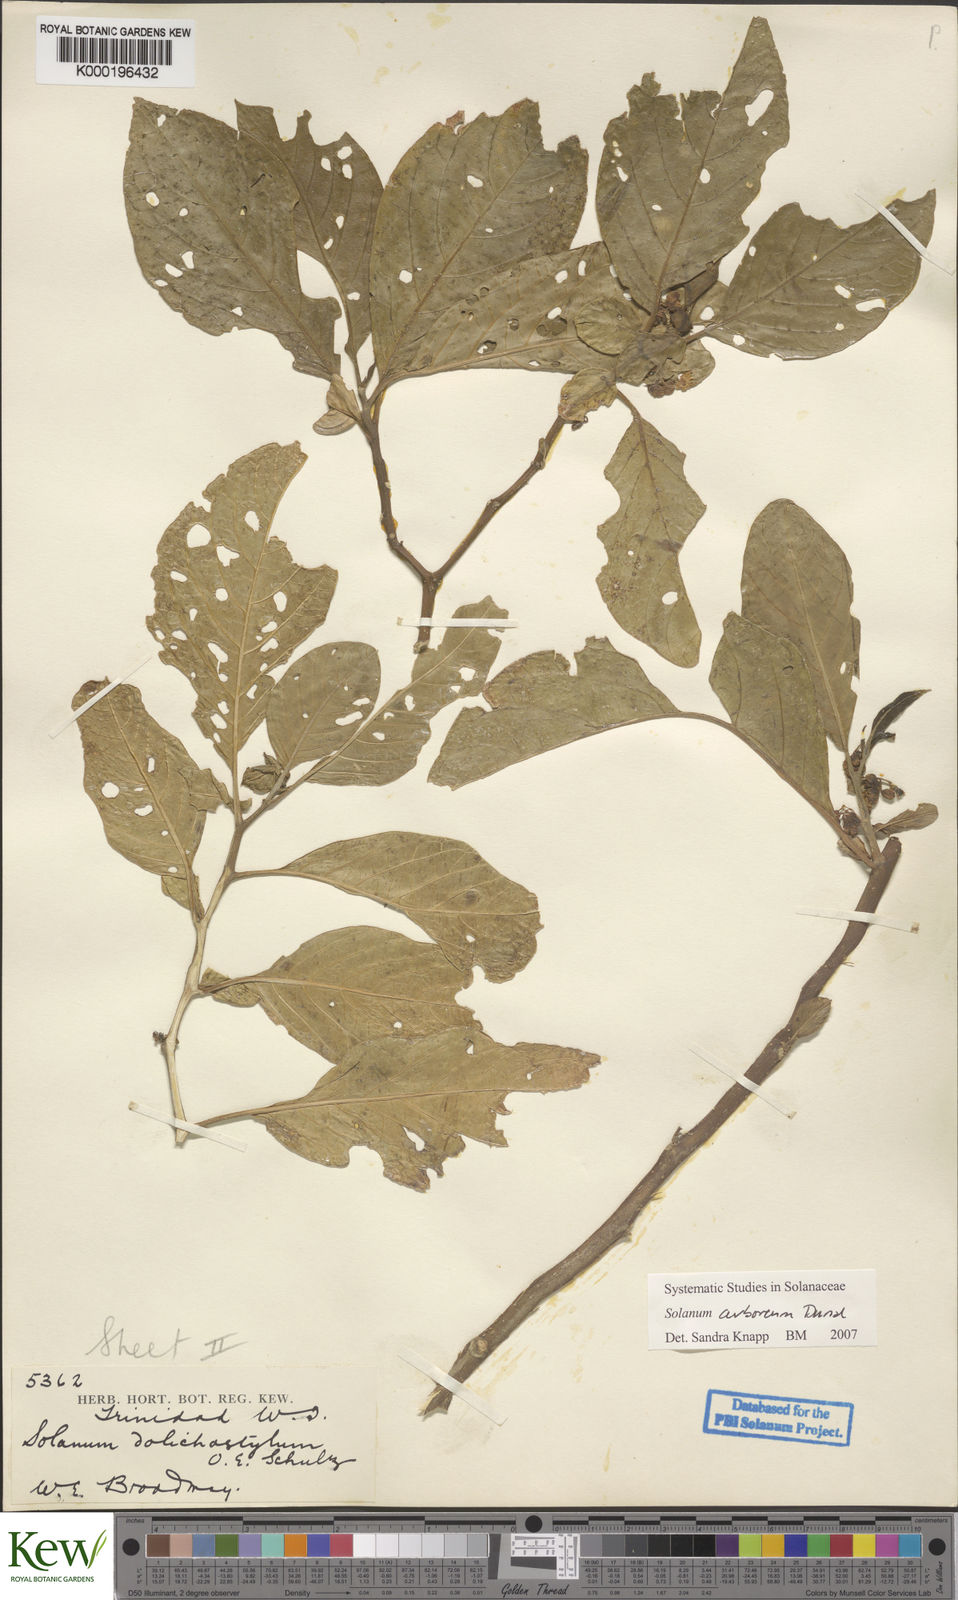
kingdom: Plantae
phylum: Tracheophyta
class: Magnoliopsida
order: Solanales
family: Solanaceae
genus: Solanum
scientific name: Solanum arboreum
